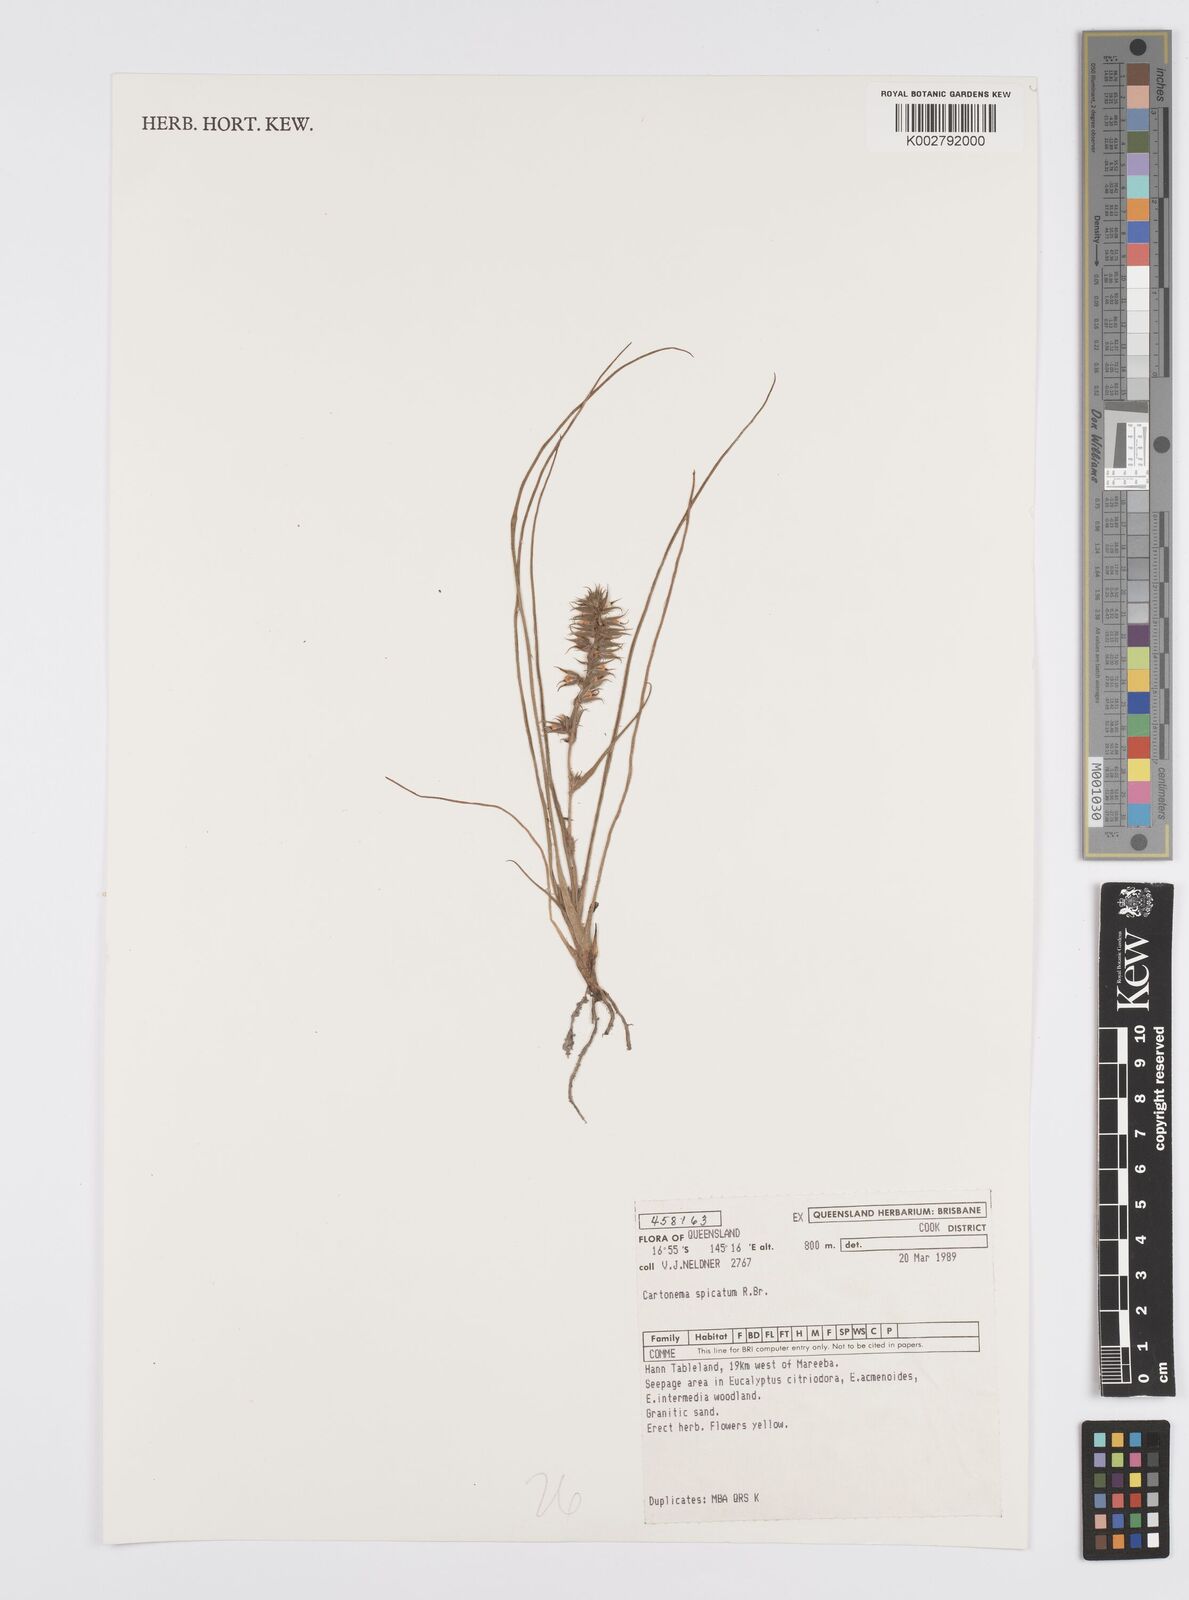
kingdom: Plantae
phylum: Tracheophyta
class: Liliopsida
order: Commelinales
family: Commelinaceae
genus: Cartonema
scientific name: Cartonema spicatum
